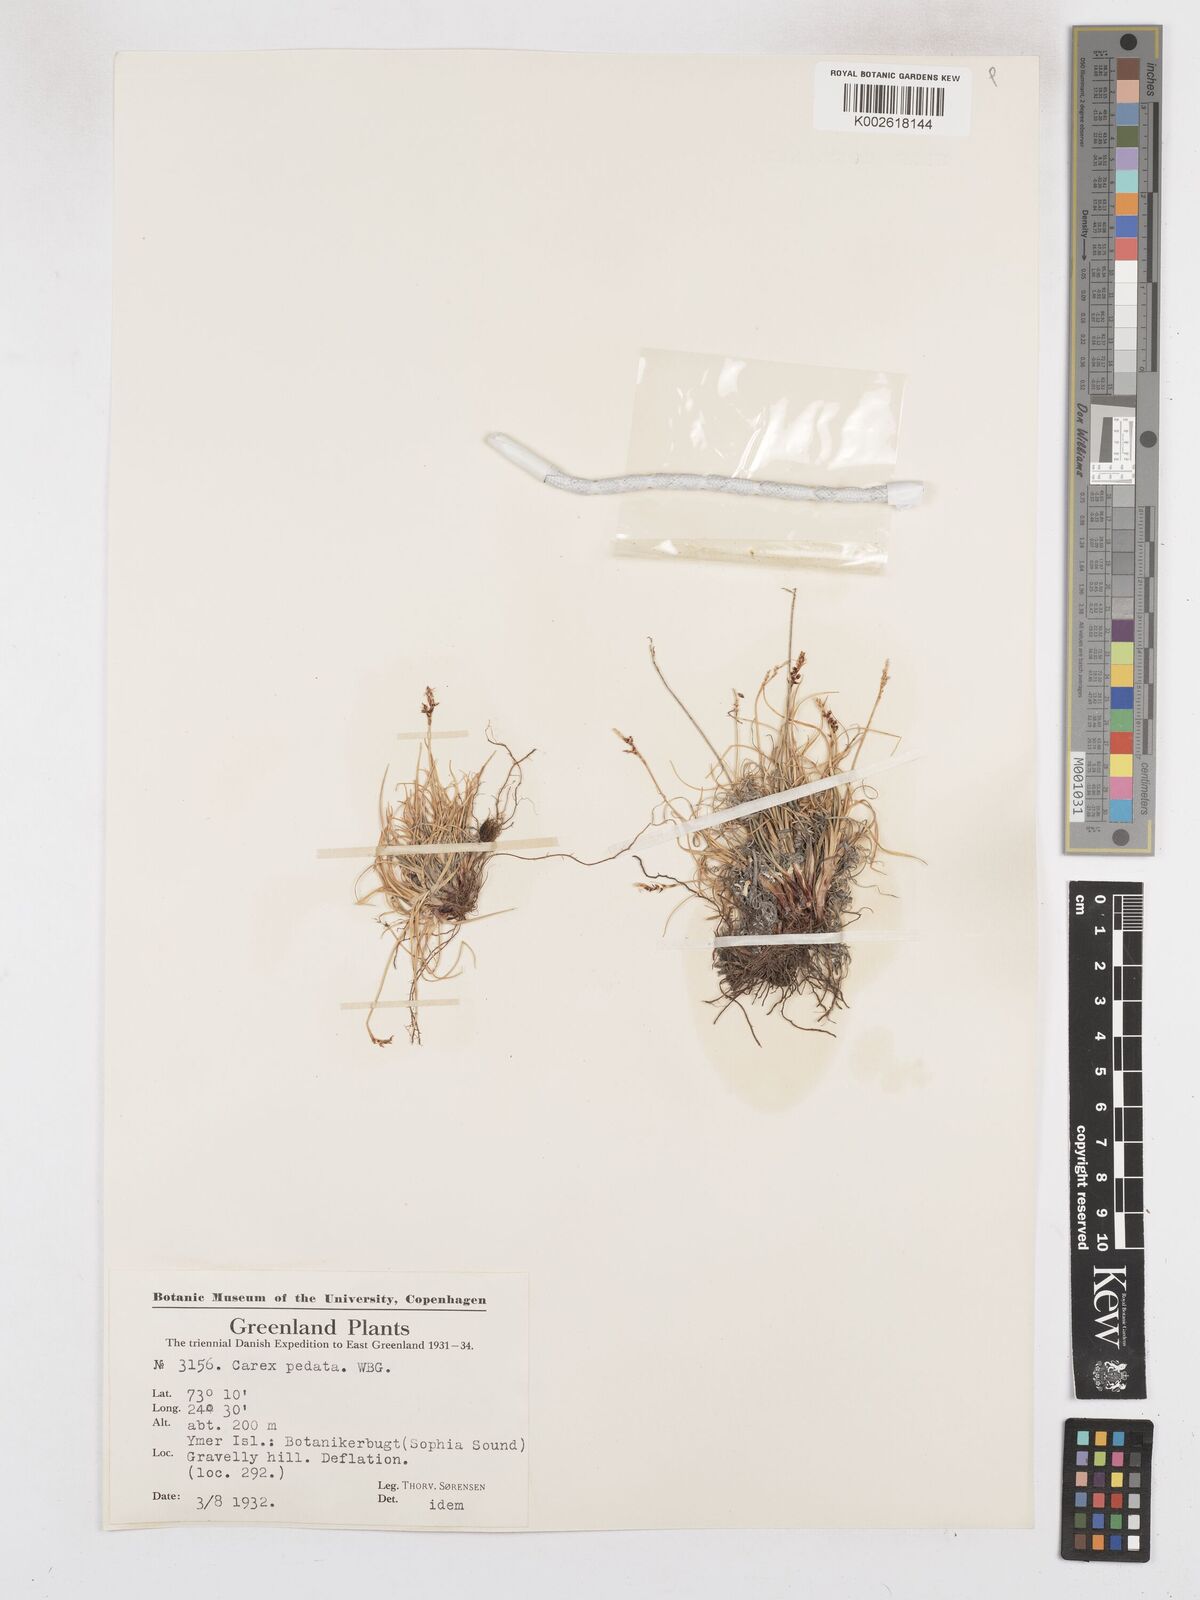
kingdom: Plantae
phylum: Tracheophyta
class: Liliopsida
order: Poales
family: Cyperaceae
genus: Carex
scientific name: Carex glacialis
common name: Newfoundland sedge
